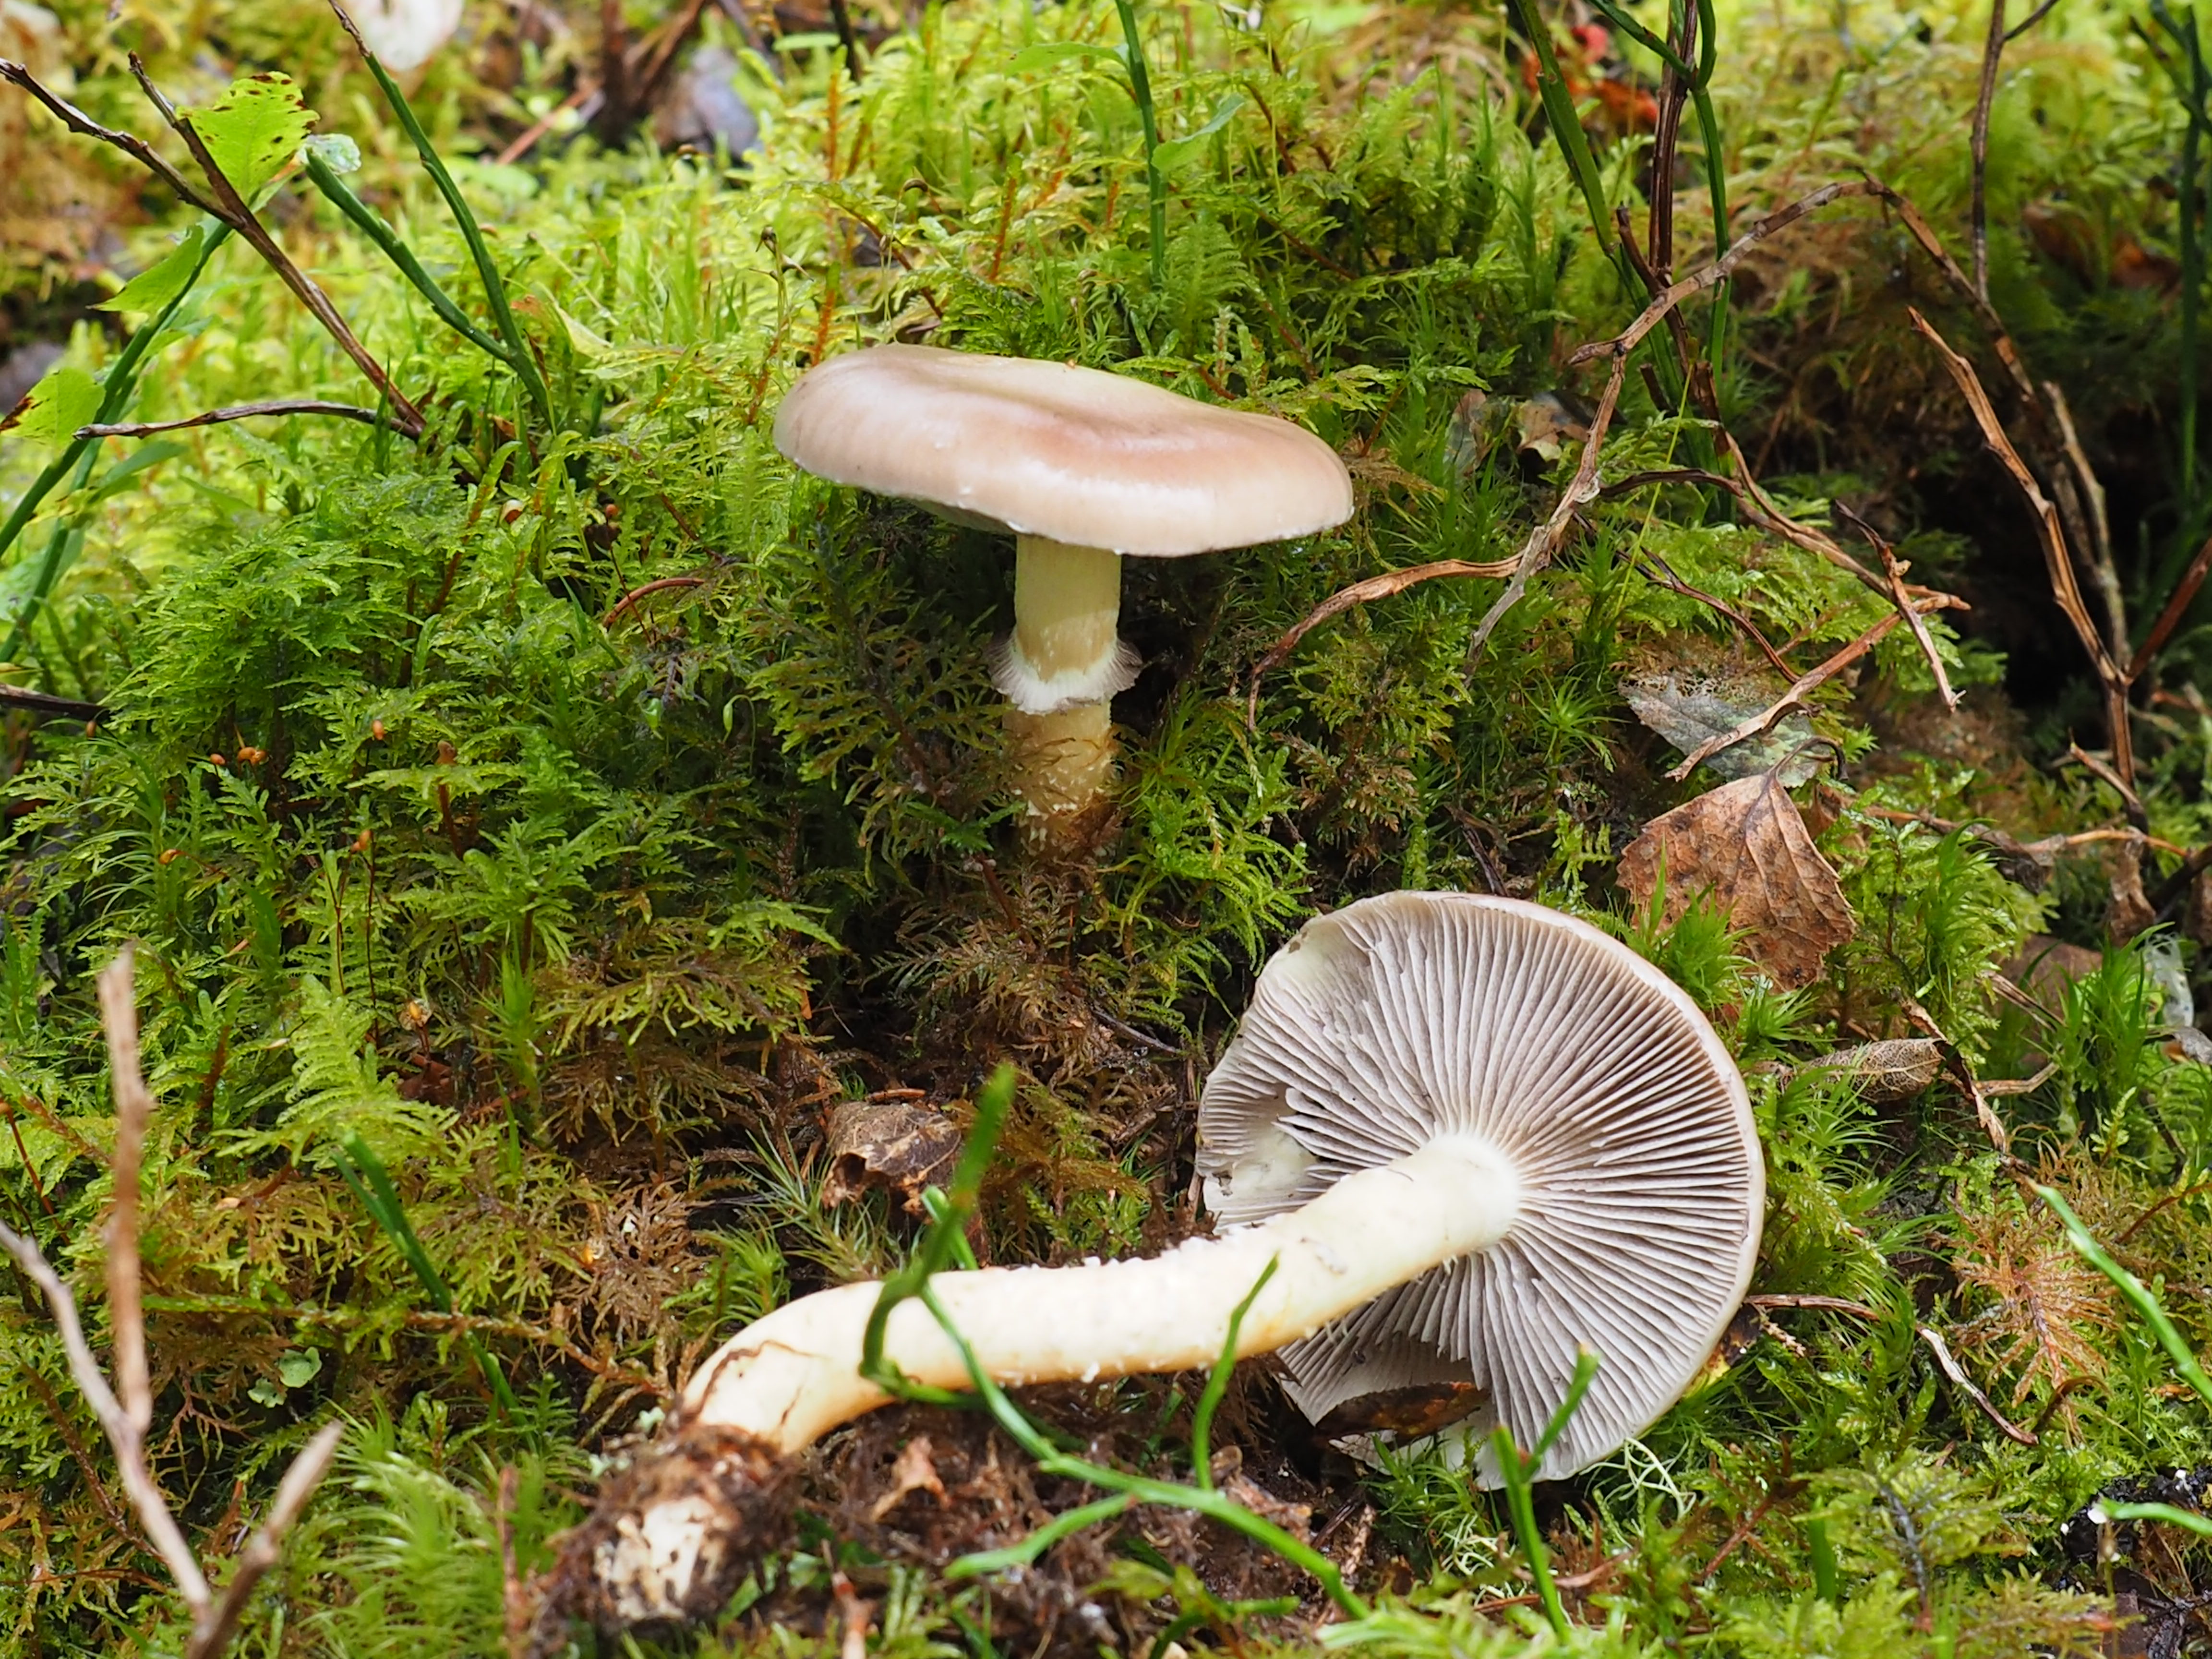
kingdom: Fungi
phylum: Basidiomycota
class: Agaricomycetes
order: Agaricales
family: Strophariaceae
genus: Stropharia
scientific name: Stropharia hornemannii
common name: Conifer roundhead
